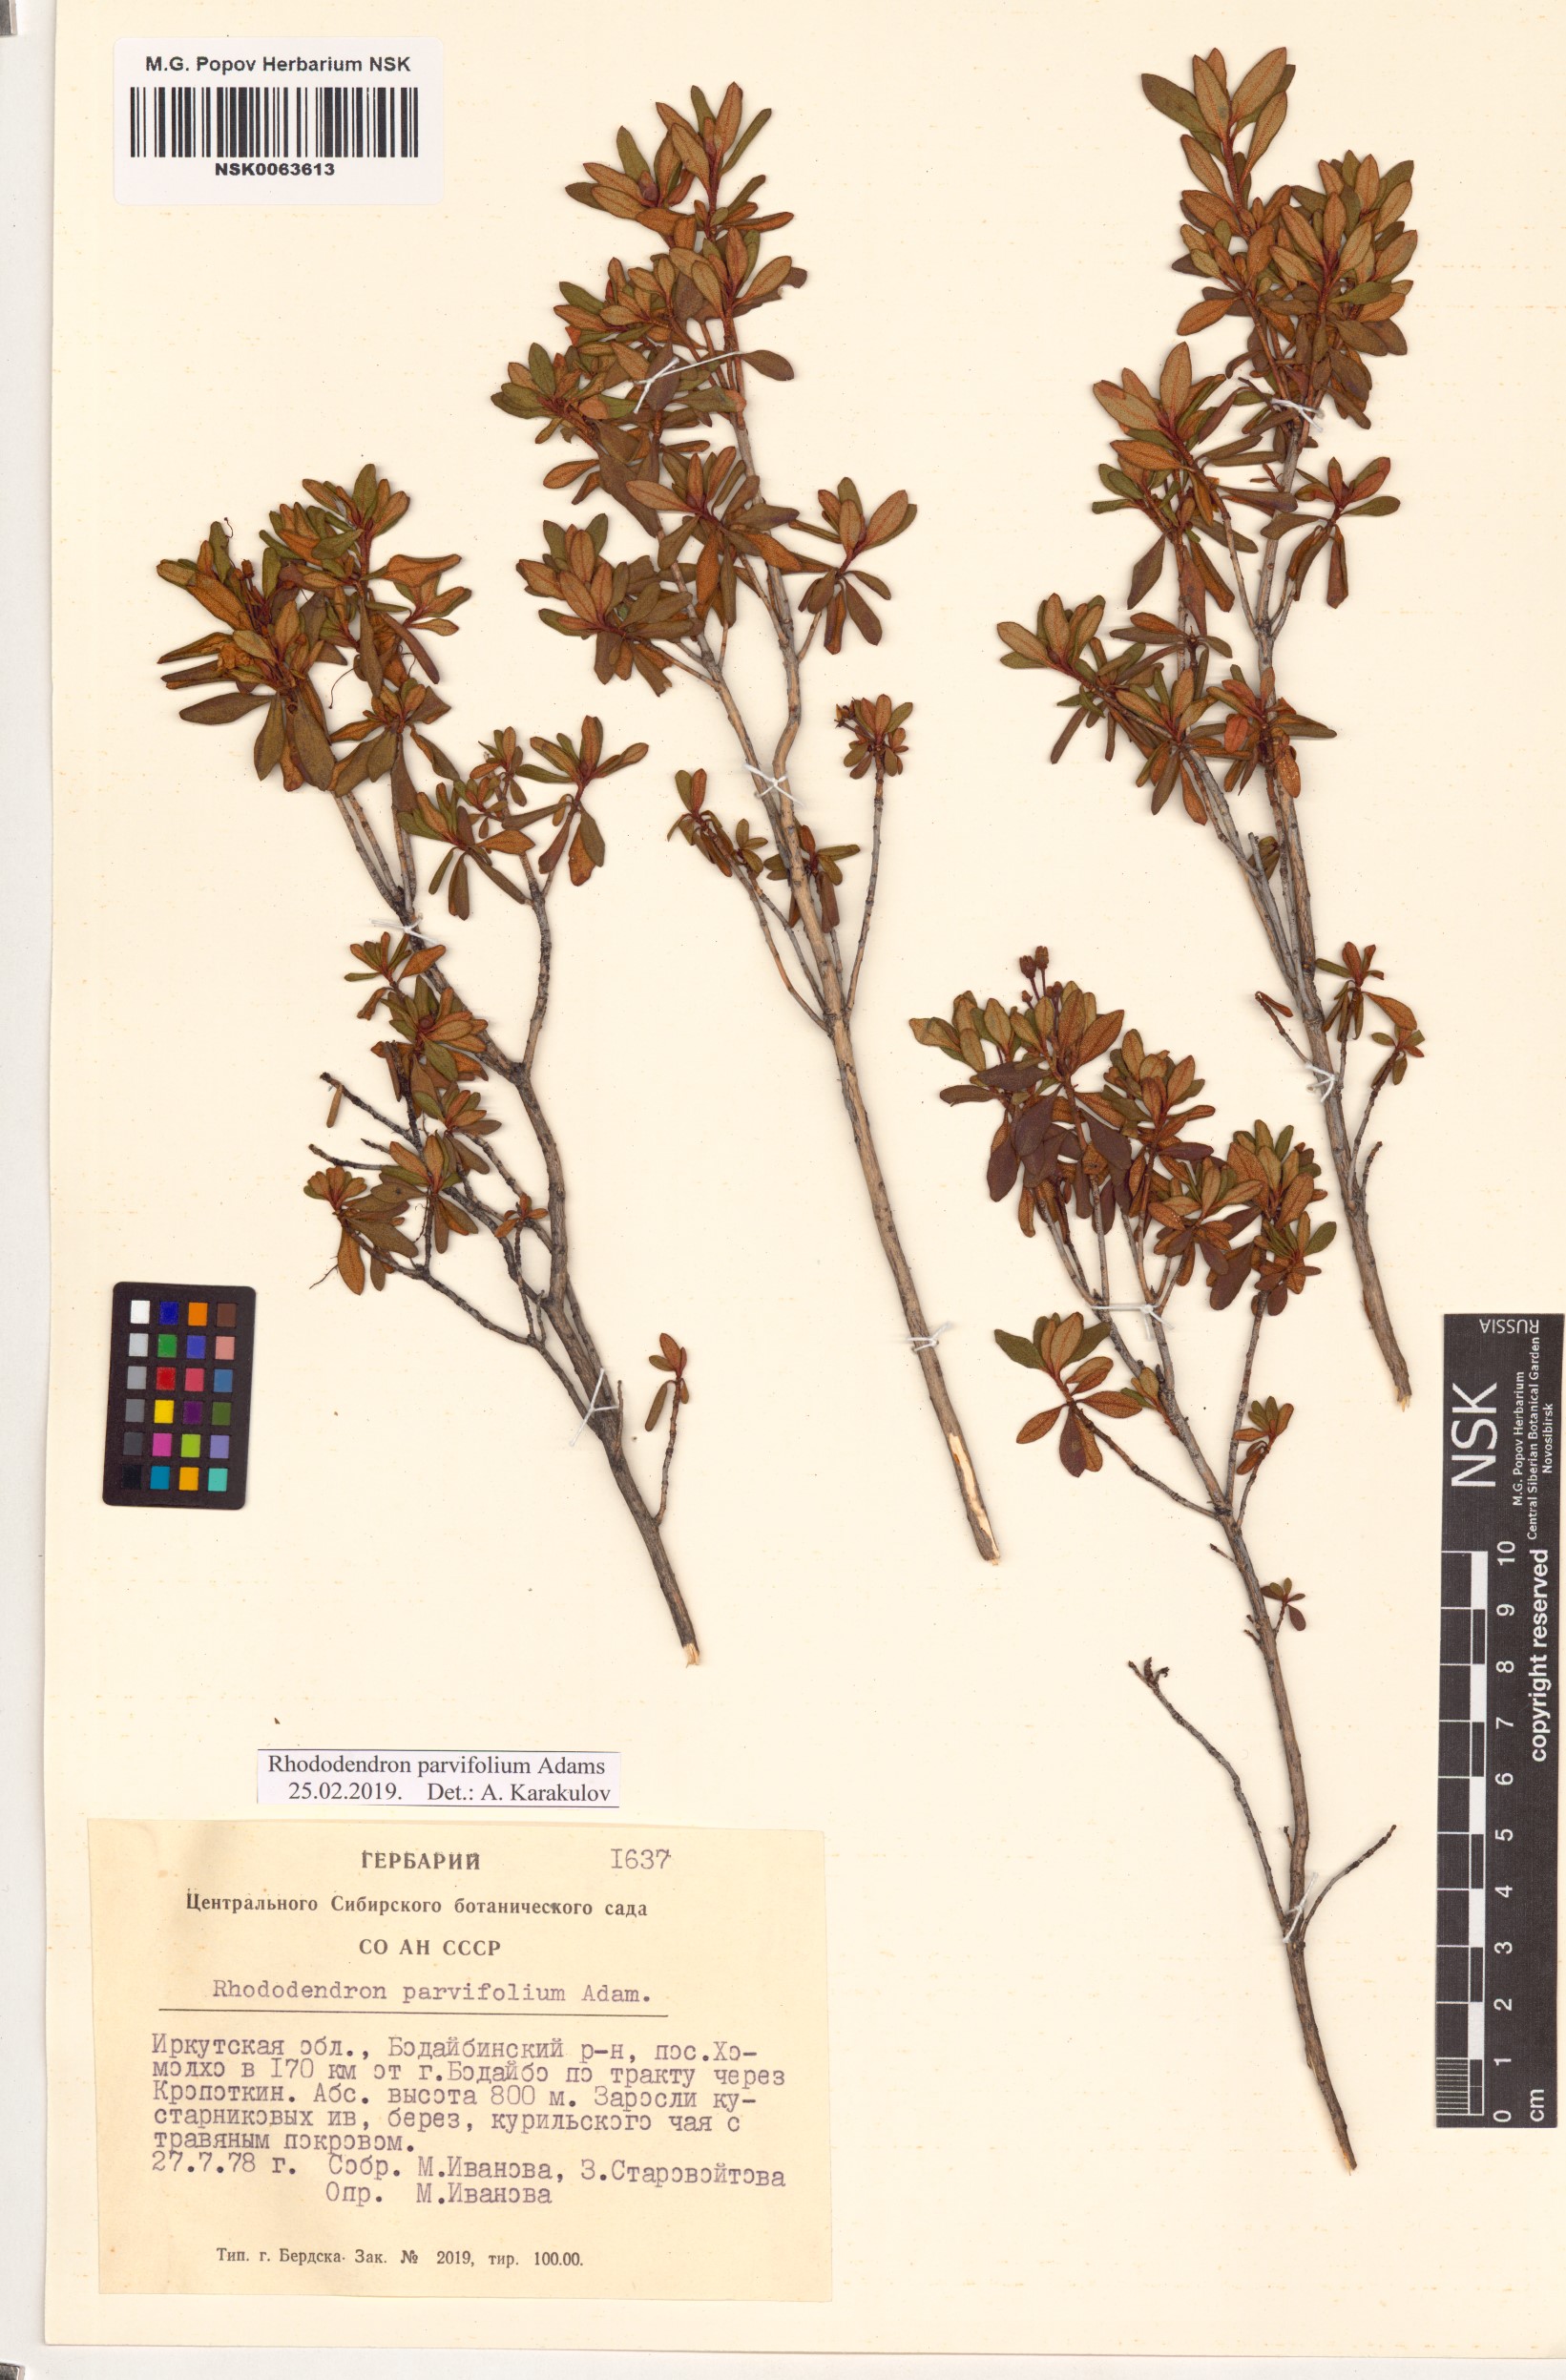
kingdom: Plantae
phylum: Tracheophyta
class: Magnoliopsida
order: Ericales
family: Ericaceae
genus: Rhododendron
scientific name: Rhododendron parvifolium
